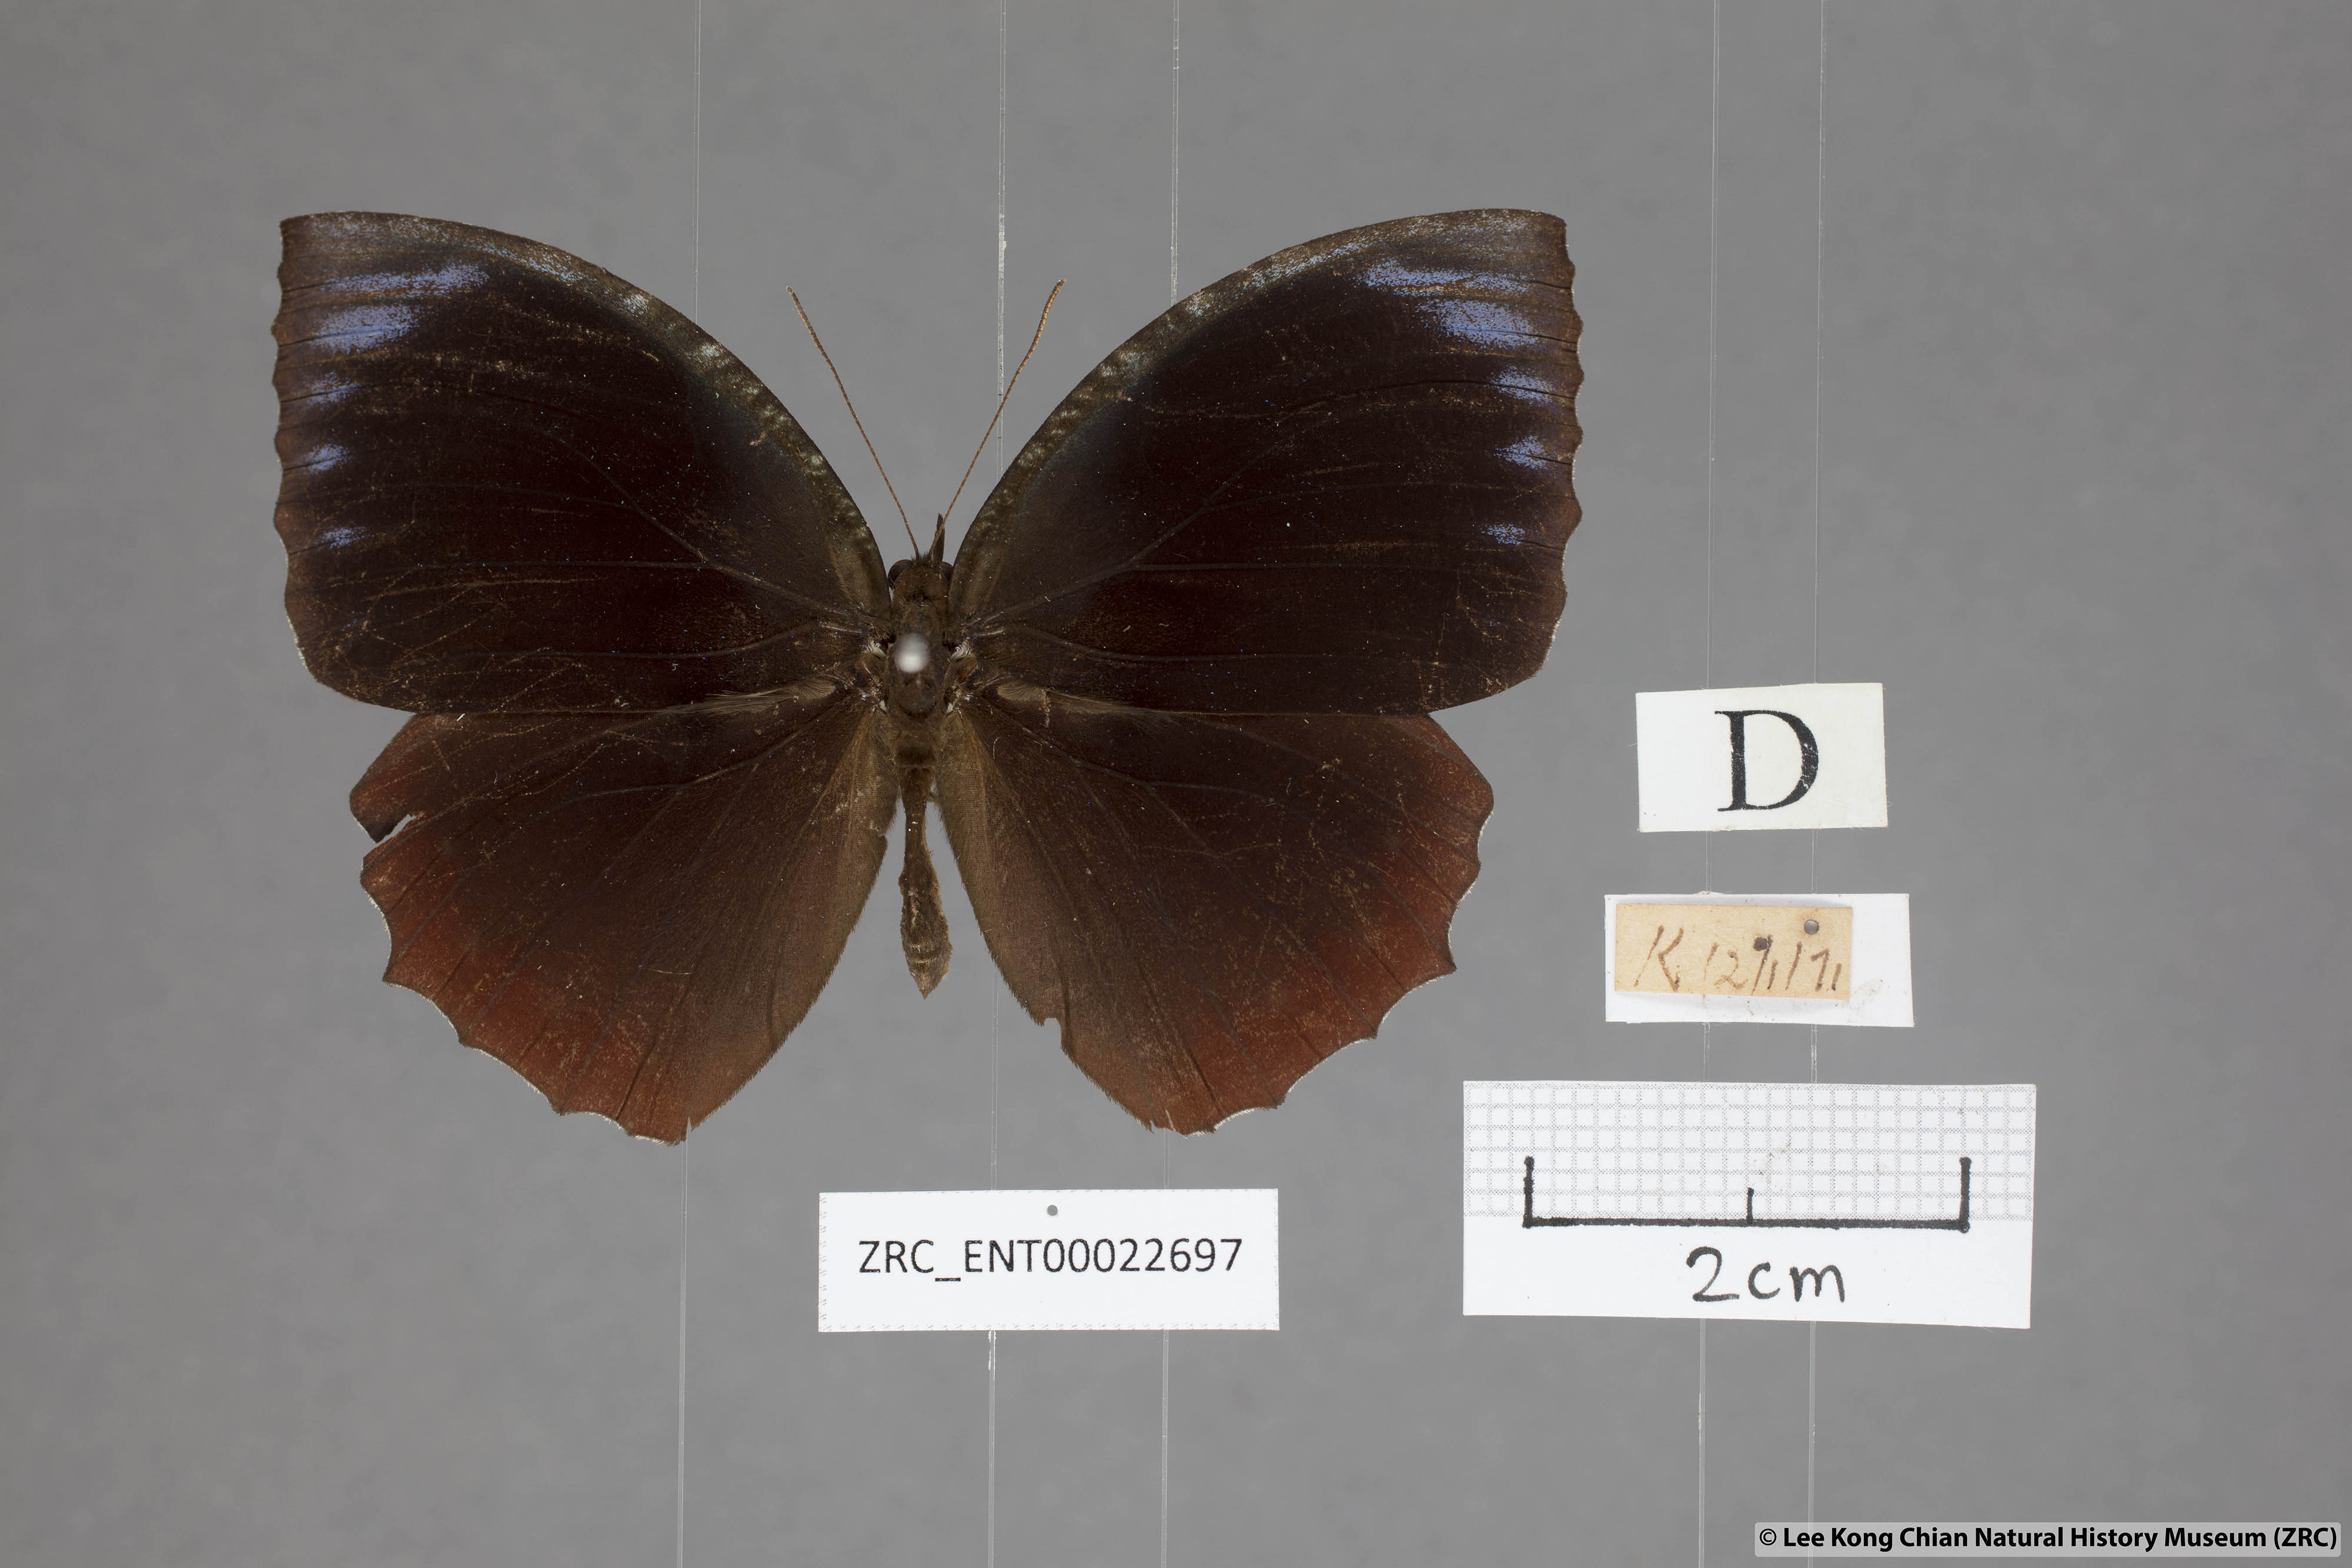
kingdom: Animalia
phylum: Arthropoda
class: Insecta
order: Lepidoptera
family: Nymphalidae
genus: Elymnias
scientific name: Elymnias hypermnestra
